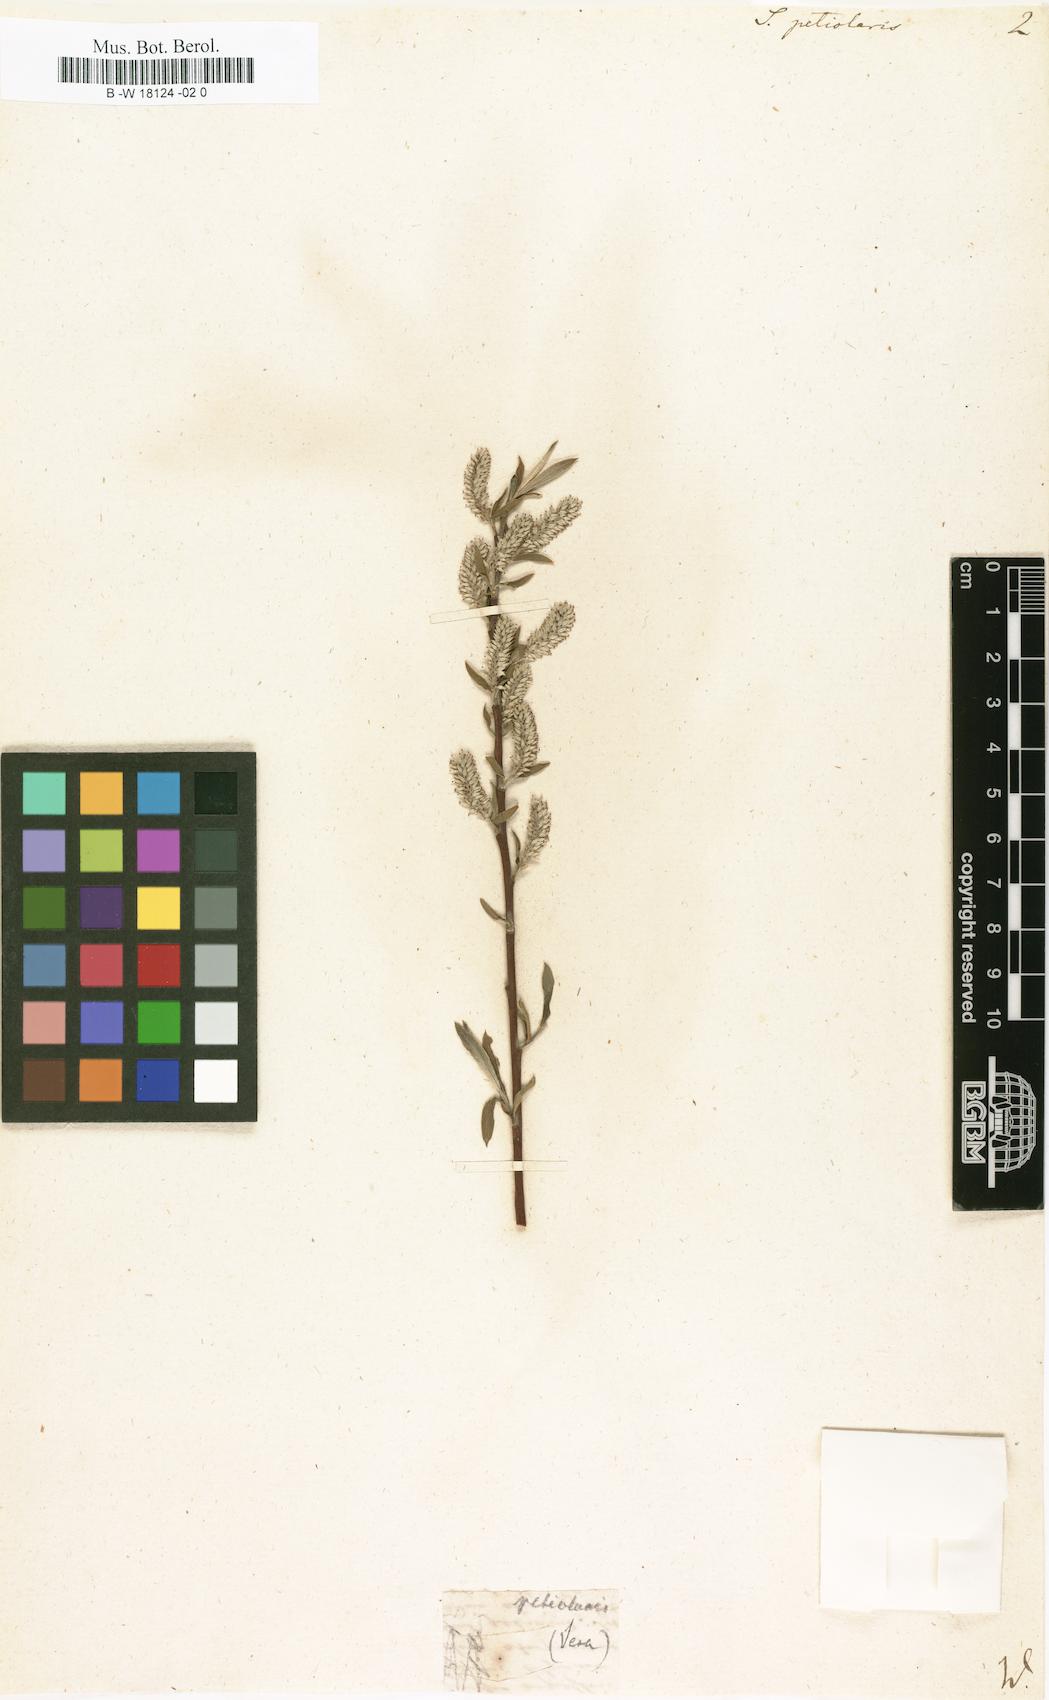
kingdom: Plantae
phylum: Tracheophyta
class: Magnoliopsida
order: Malpighiales
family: Salicaceae
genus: Salix
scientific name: Salix petiolaris
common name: Slender willow
